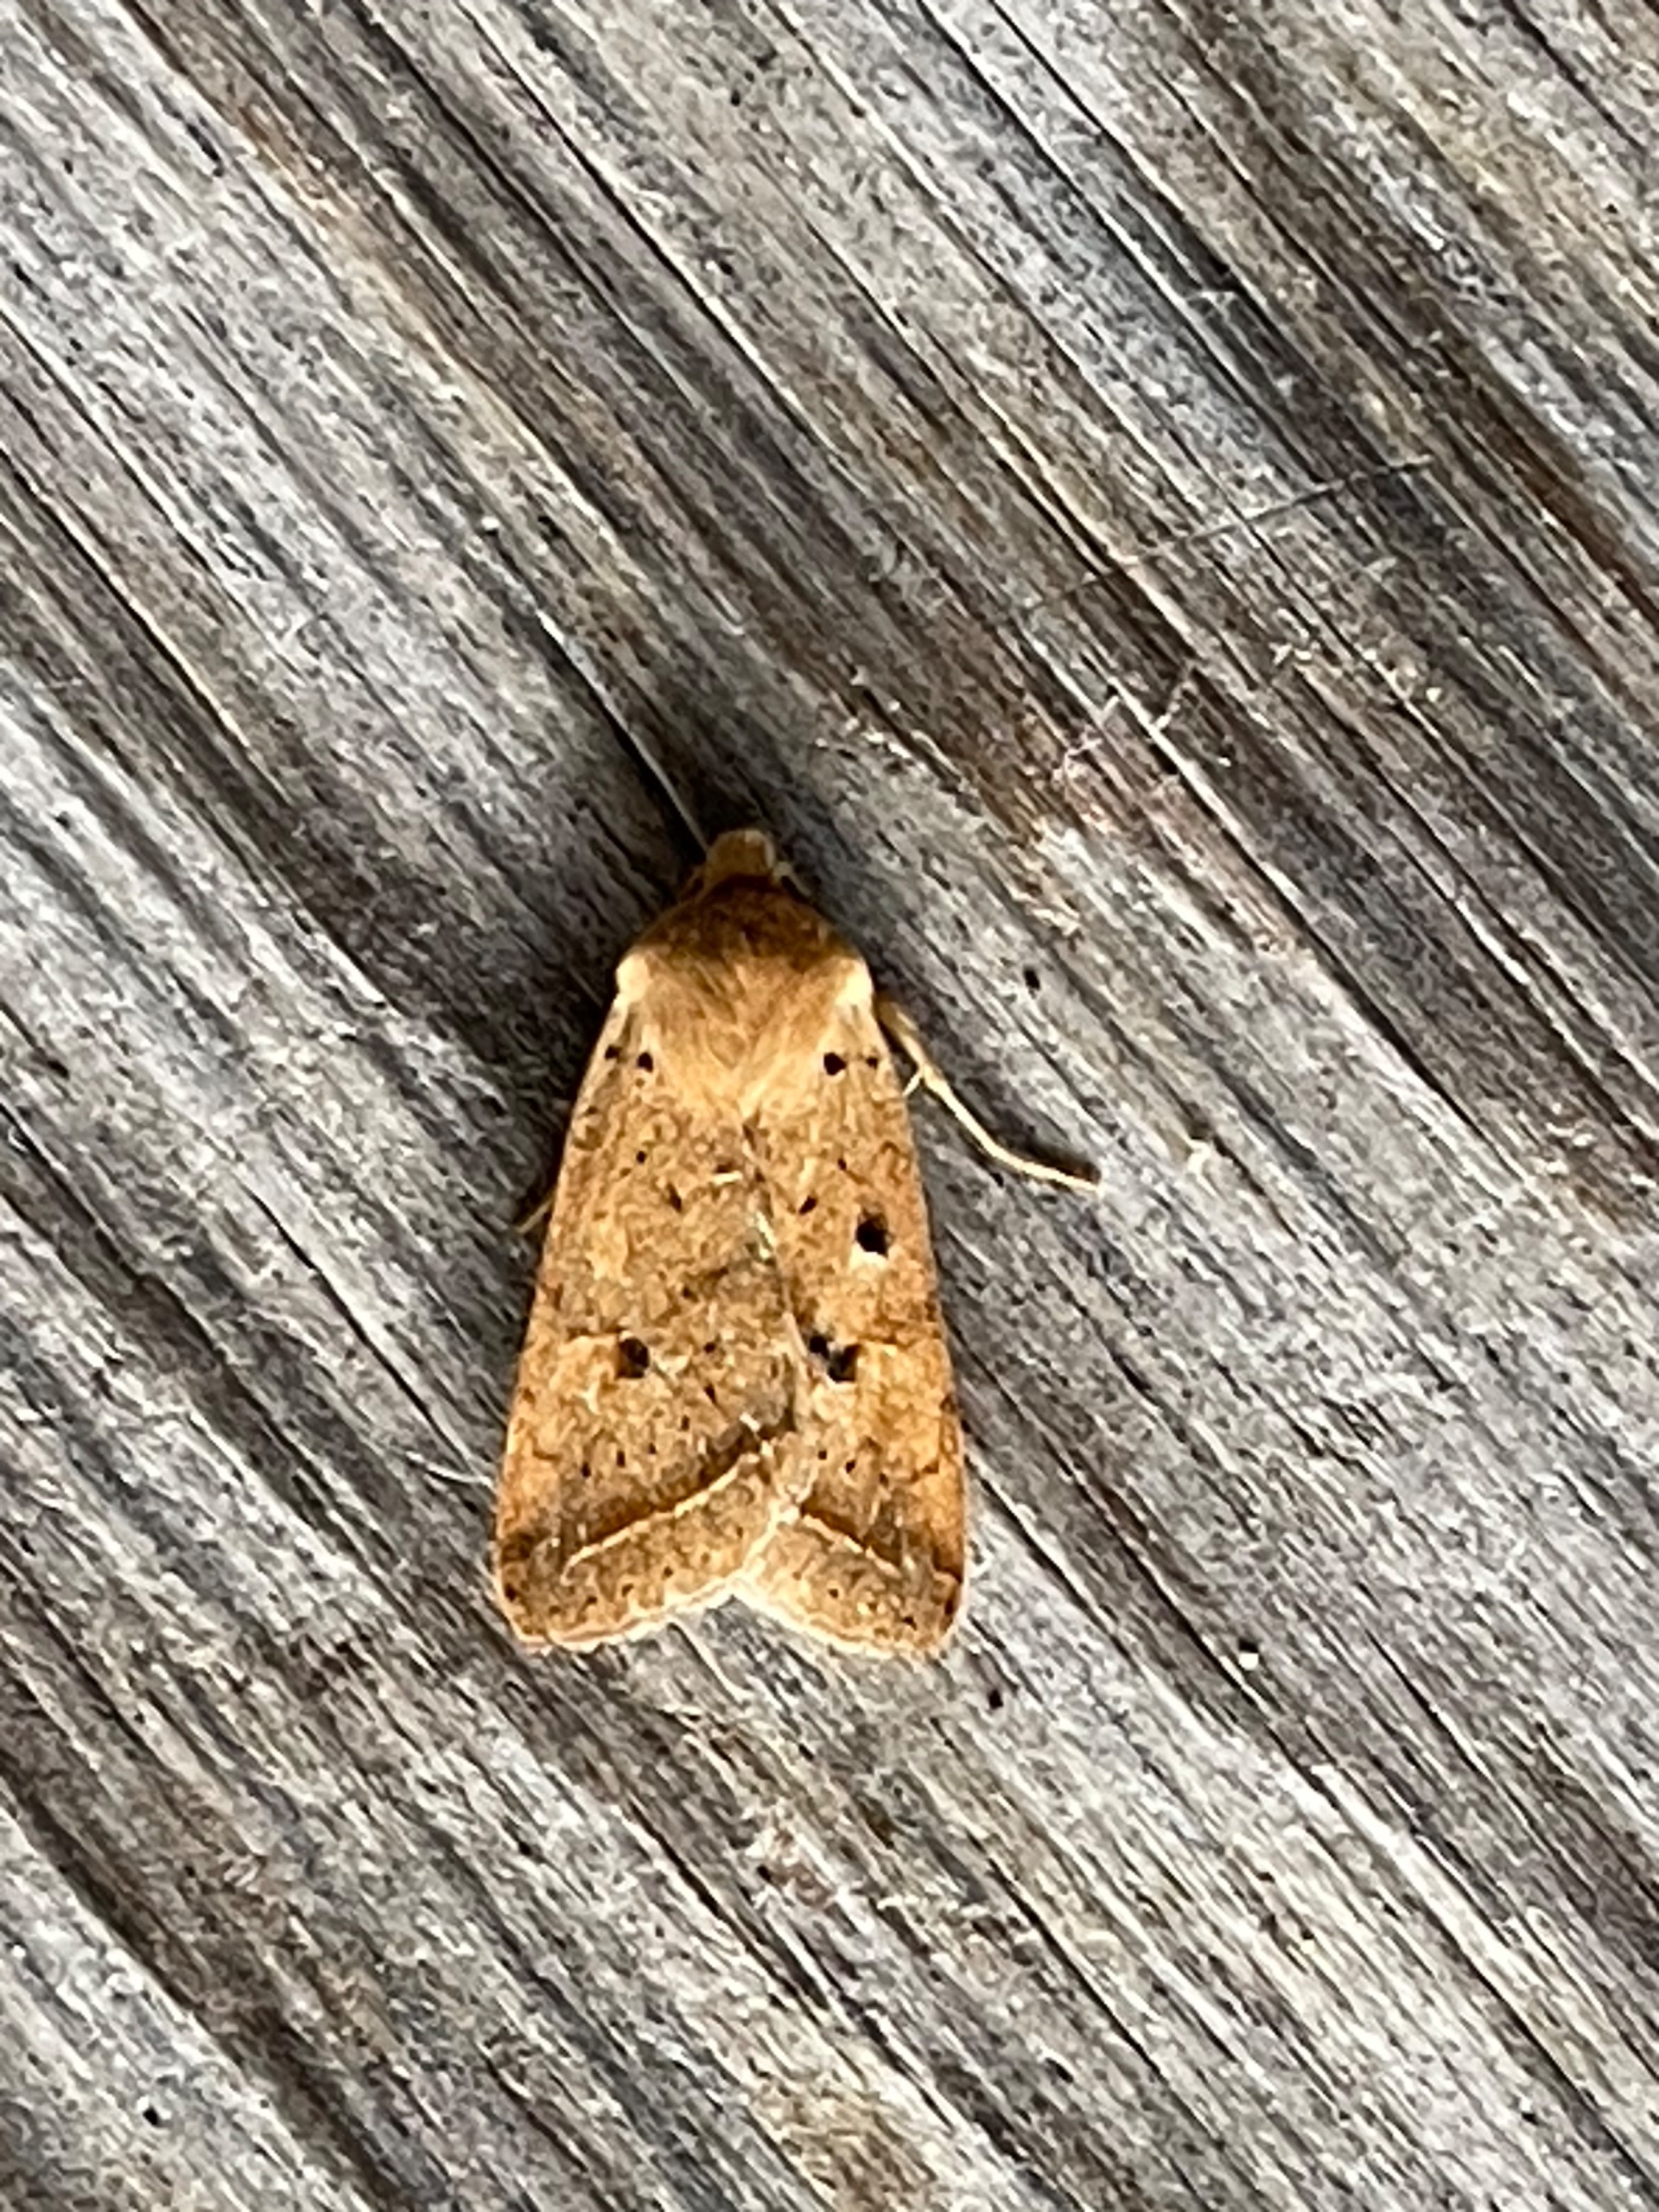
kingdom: Animalia
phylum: Arthropoda
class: Insecta
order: Lepidoptera
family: Noctuidae
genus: Agrochola
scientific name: Agrochola Leptologia macilenta
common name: Mager jordfarveugle
